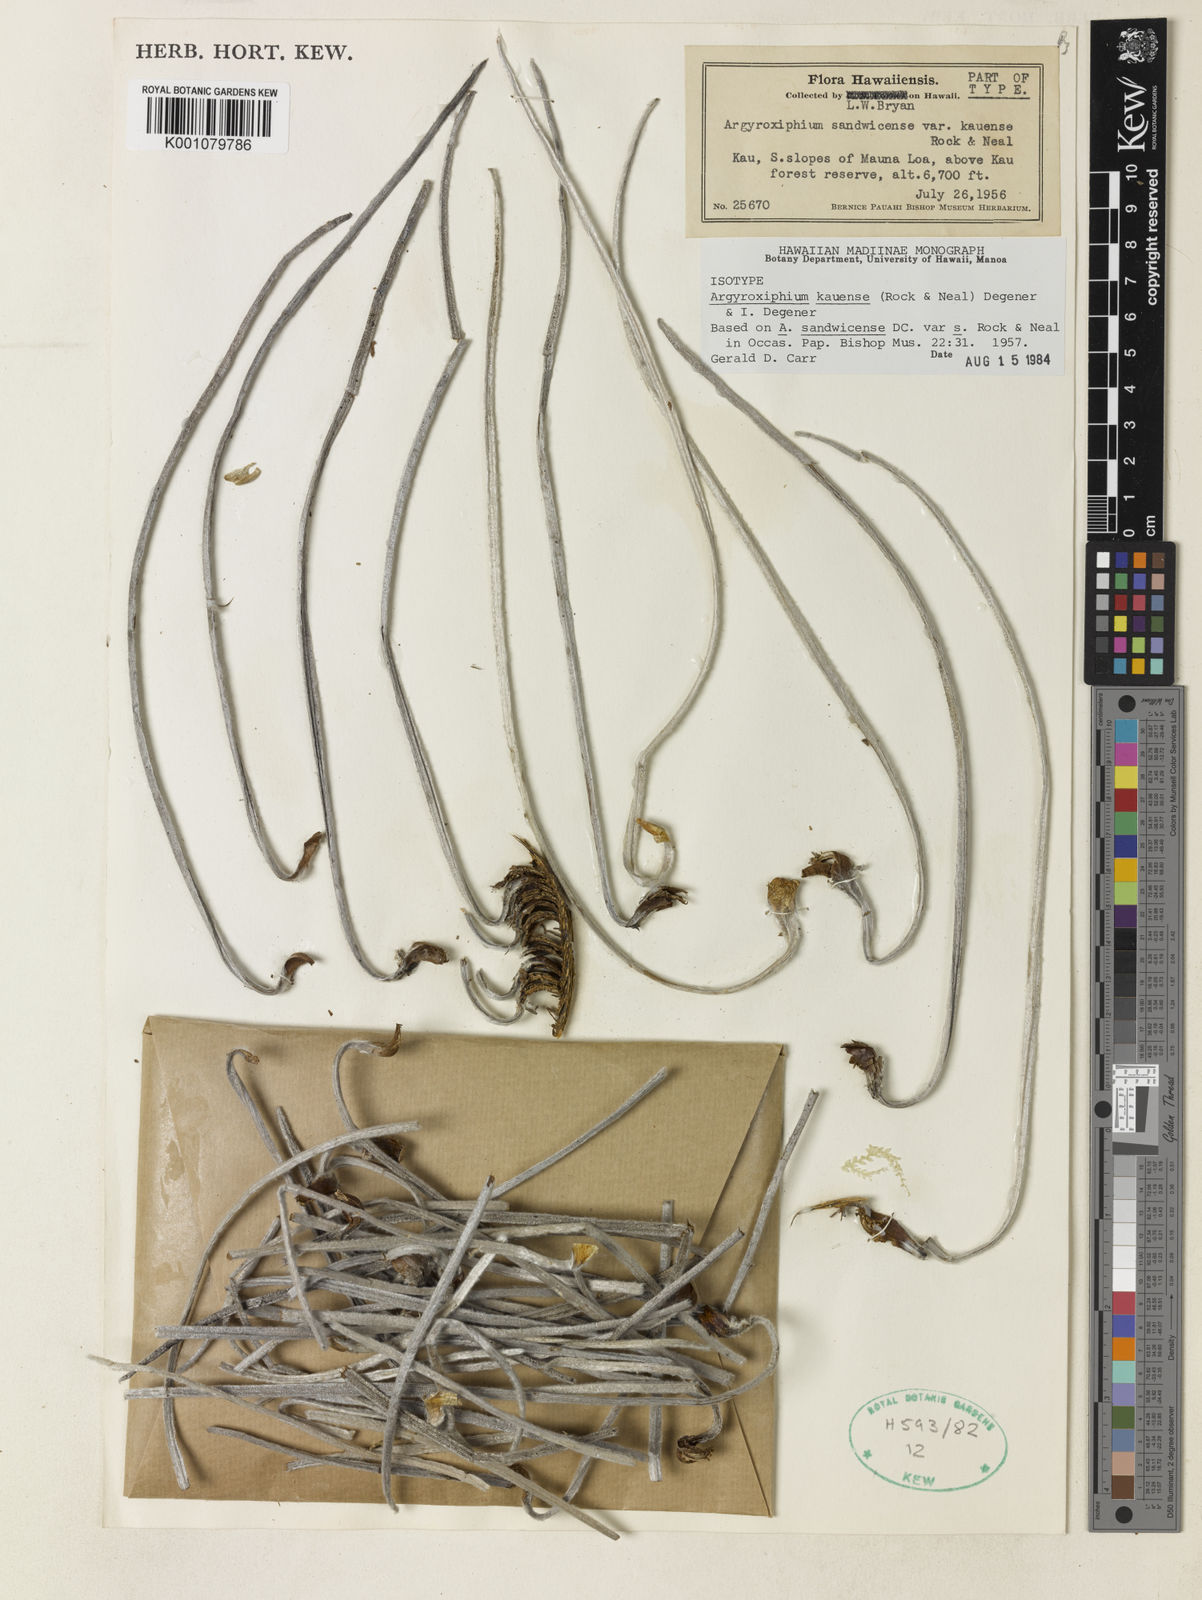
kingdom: Plantae
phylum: Tracheophyta
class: Magnoliopsida
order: Asterales
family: Asteraceae
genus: Argyroxiphium
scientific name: Argyroxiphium kauense
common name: Kau silversword
